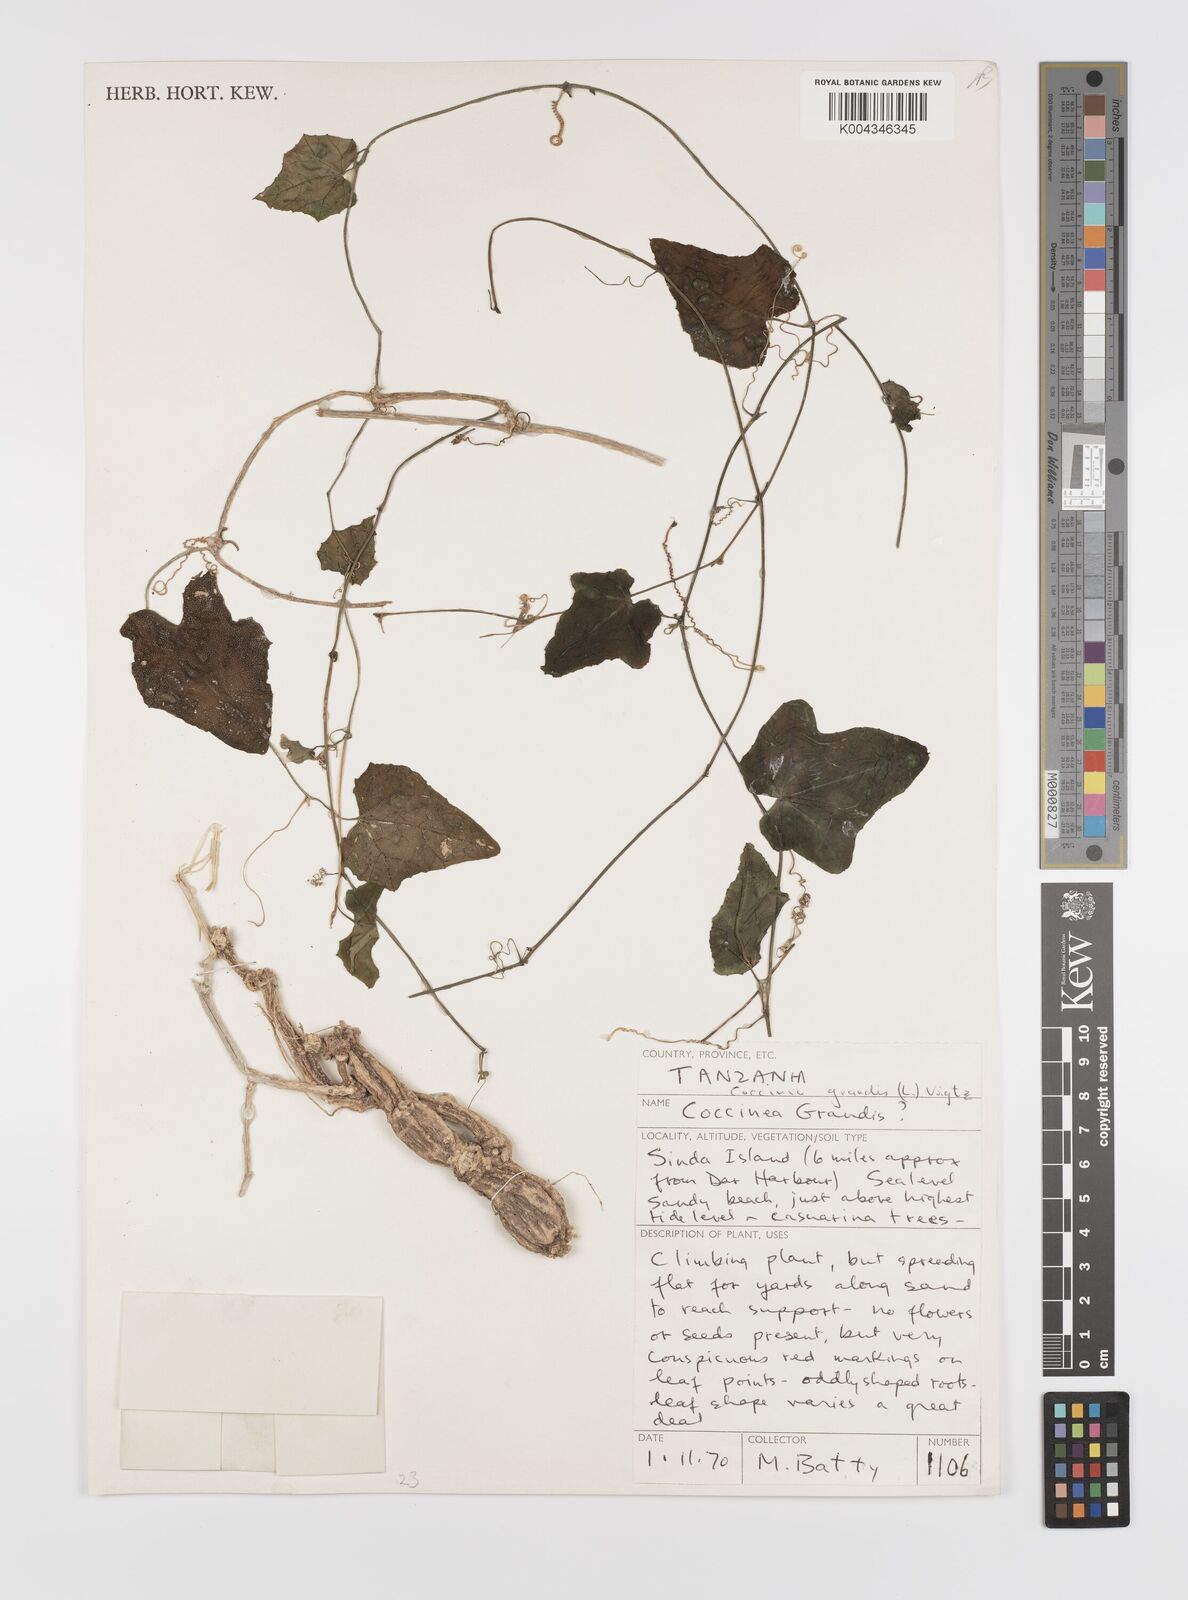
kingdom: Plantae
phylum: Tracheophyta
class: Magnoliopsida
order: Cucurbitales
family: Cucurbitaceae
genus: Coccinia
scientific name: Coccinia grandis
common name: Ivy gourd
